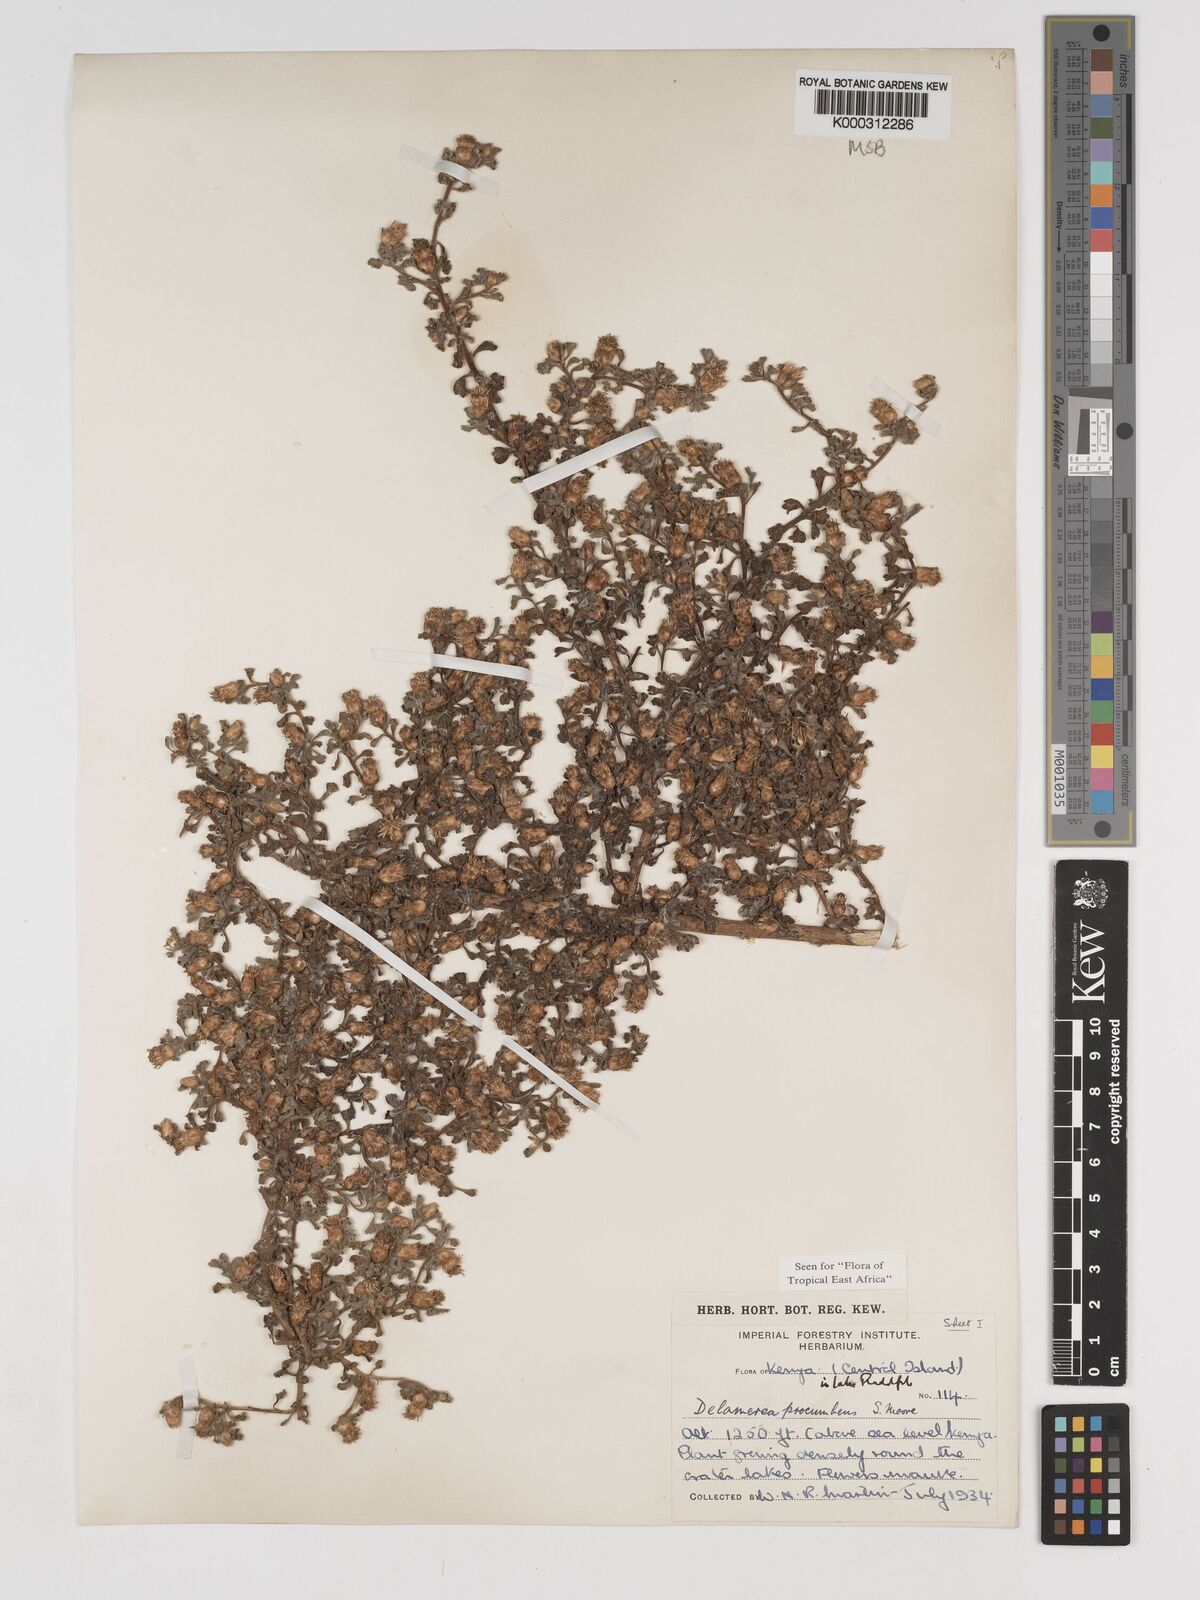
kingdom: Plantae
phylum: Tracheophyta
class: Magnoliopsida
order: Asterales
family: Asteraceae
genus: Delamerea
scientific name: Delamerea procumbens
